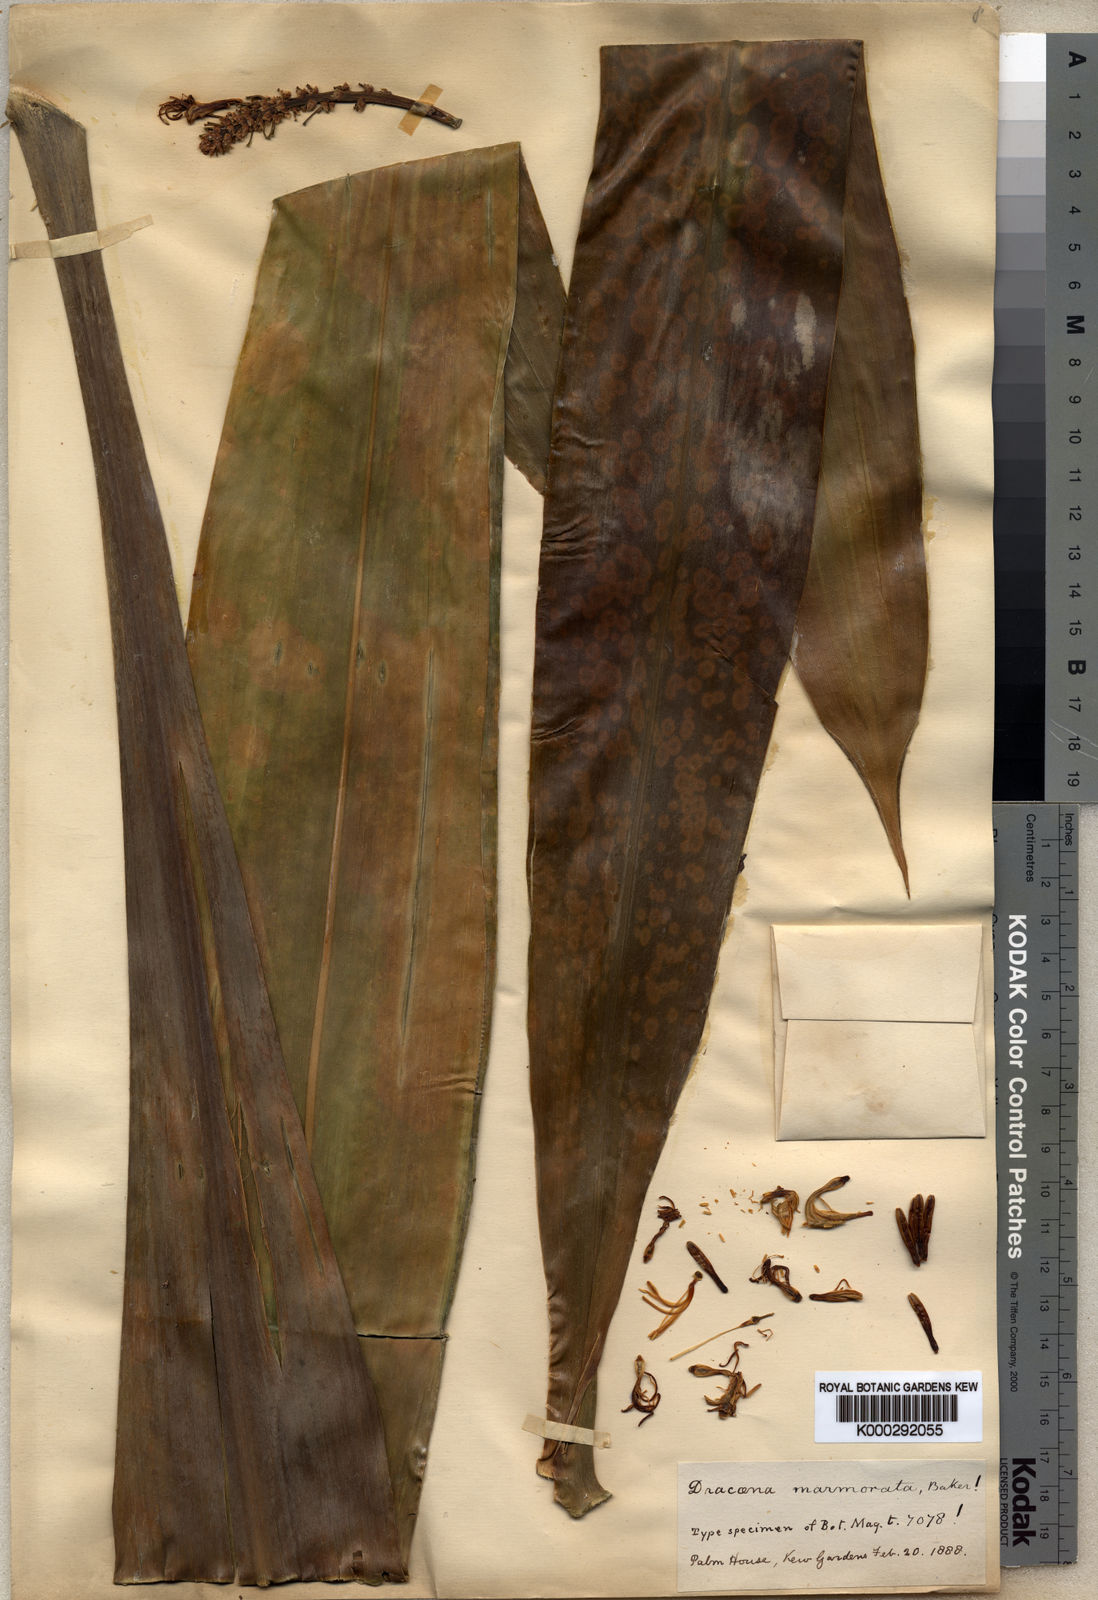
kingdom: Plantae
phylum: Tracheophyta
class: Liliopsida
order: Asparagales
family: Asparagaceae
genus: Dracaena
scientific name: Dracaena
